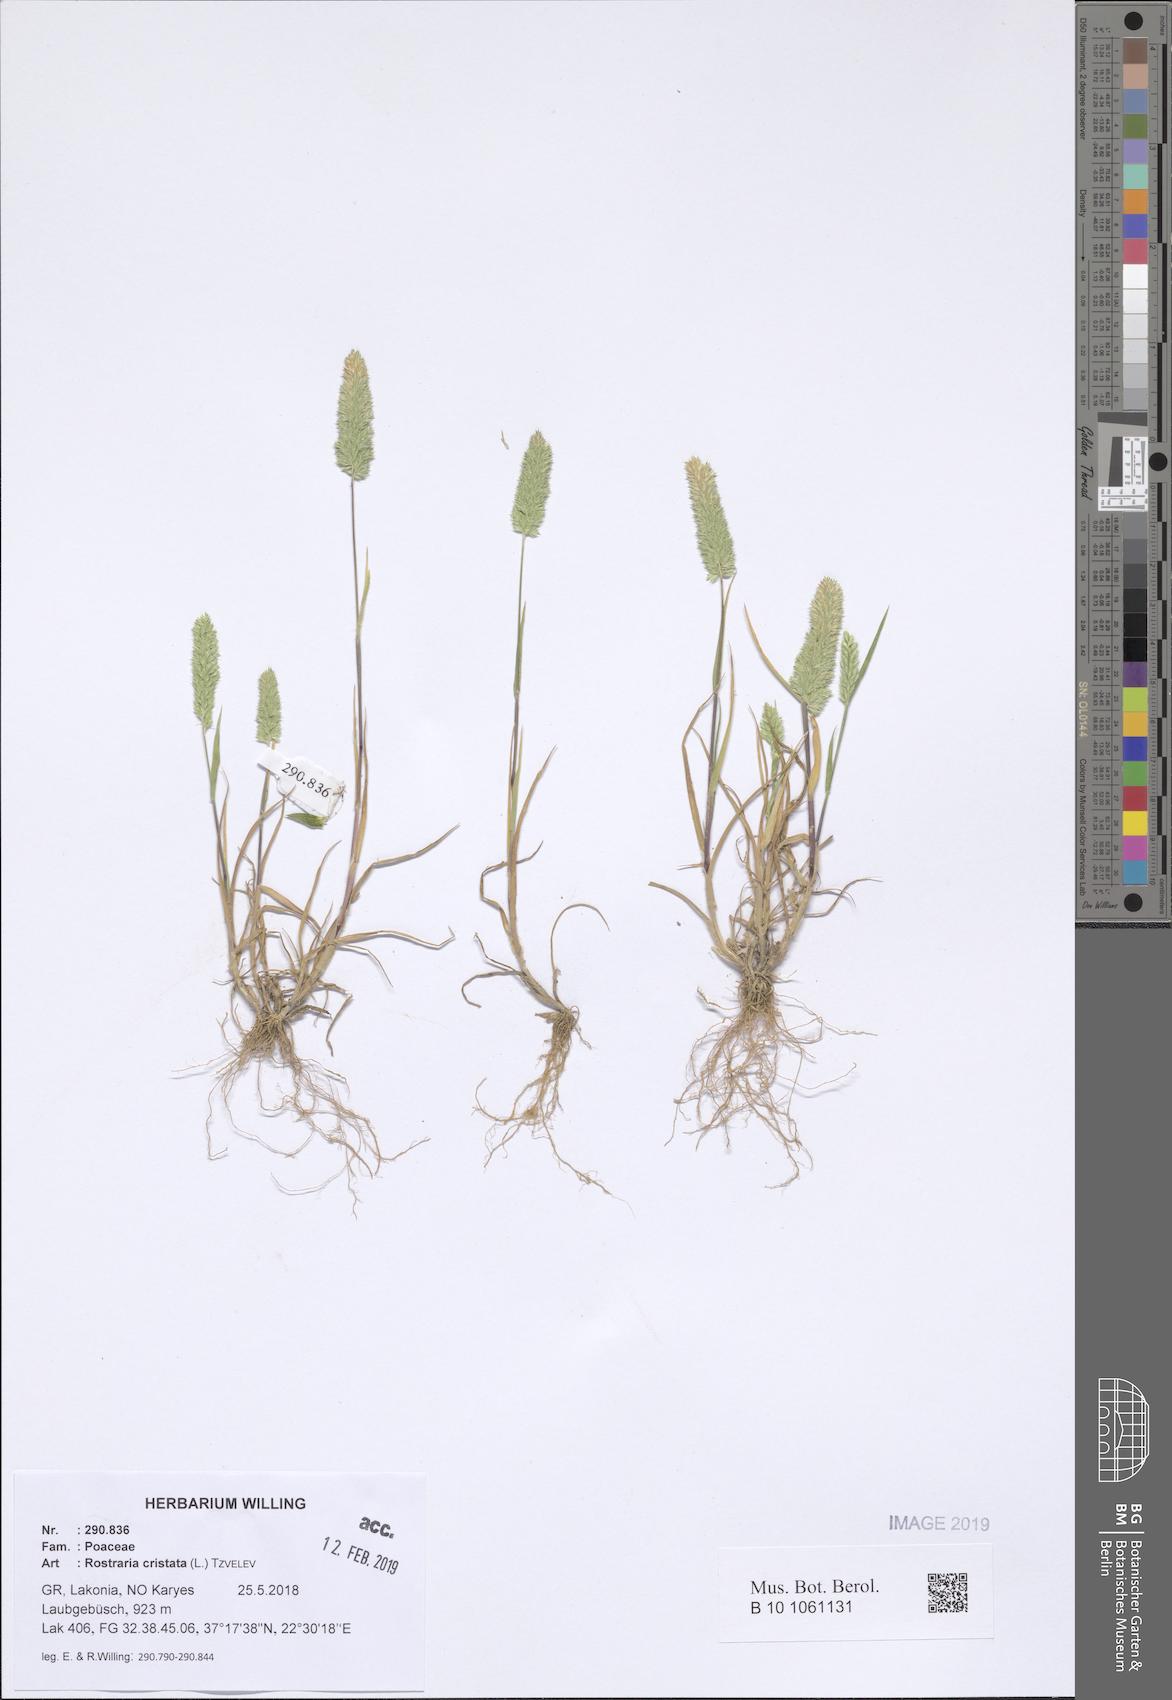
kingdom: Plantae
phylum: Tracheophyta
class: Liliopsida
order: Poales
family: Poaceae
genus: Rostraria
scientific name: Rostraria cristata
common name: Mediterranean hair-grass
